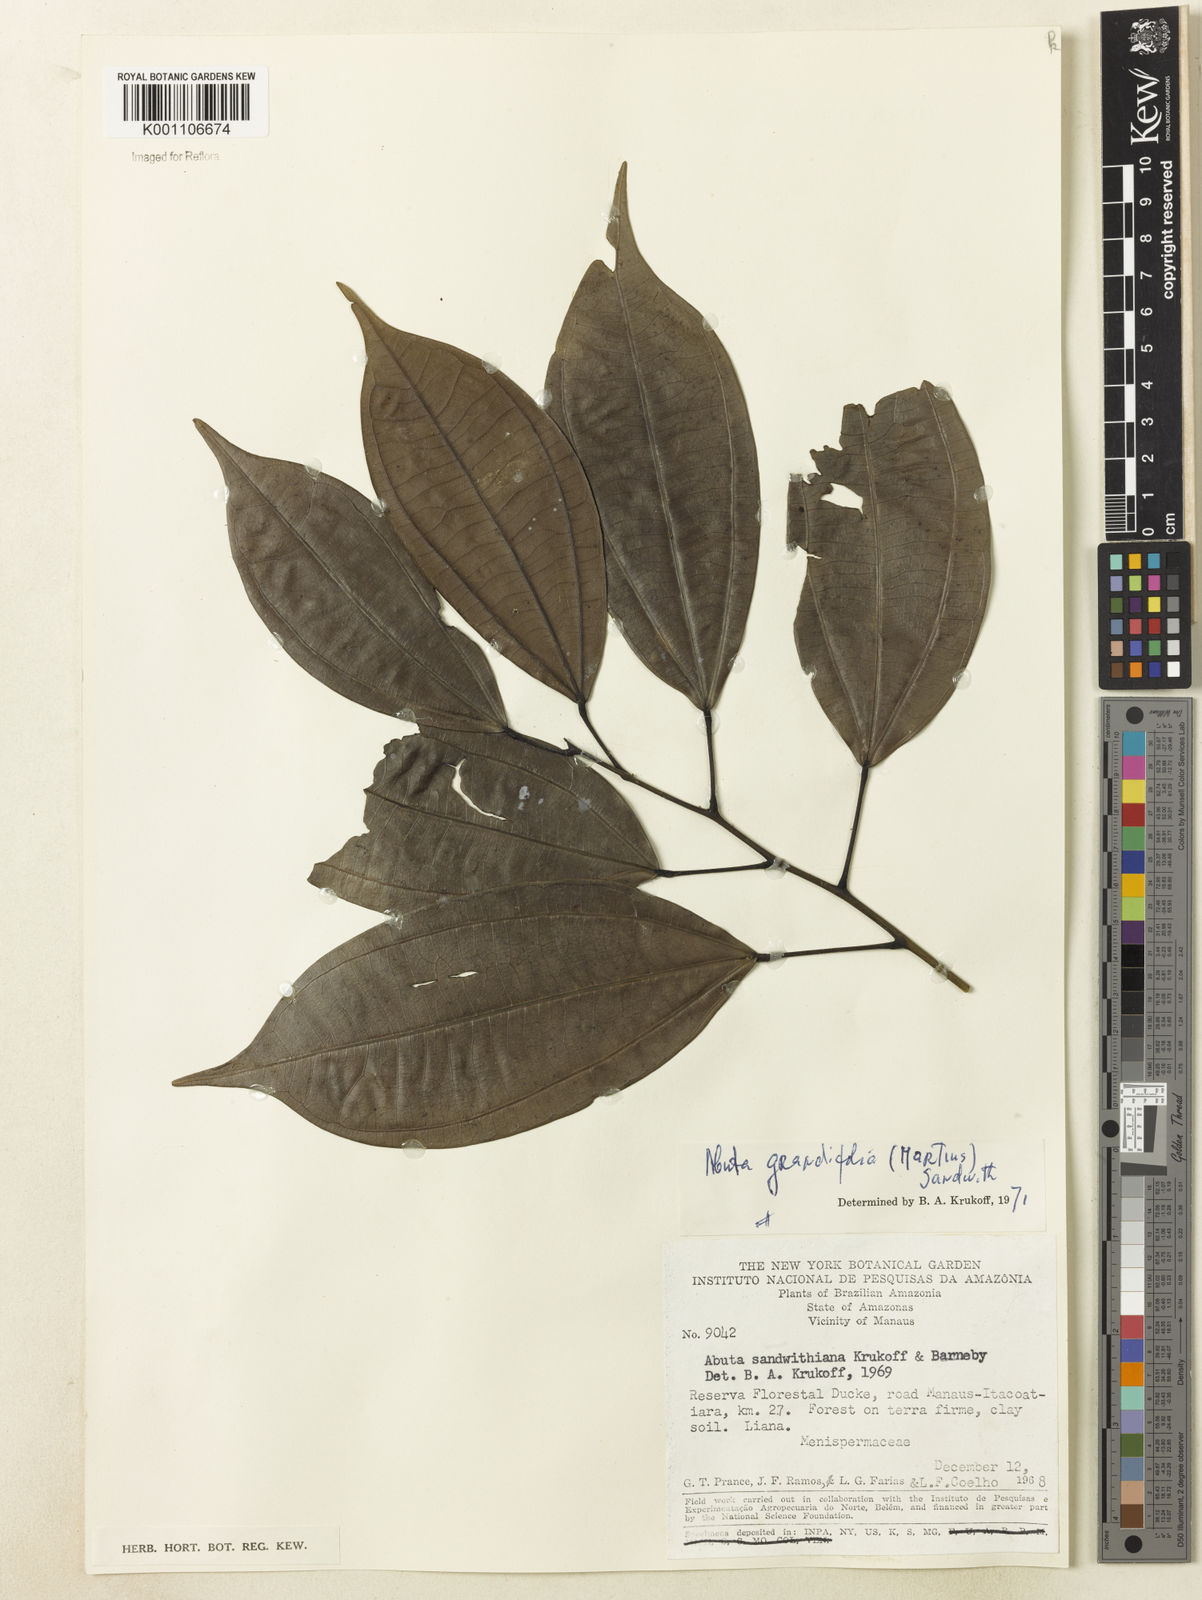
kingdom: Plantae
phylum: Tracheophyta
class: Magnoliopsida
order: Ranunculales
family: Menispermaceae
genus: Abuta
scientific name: Abuta grandifolia
